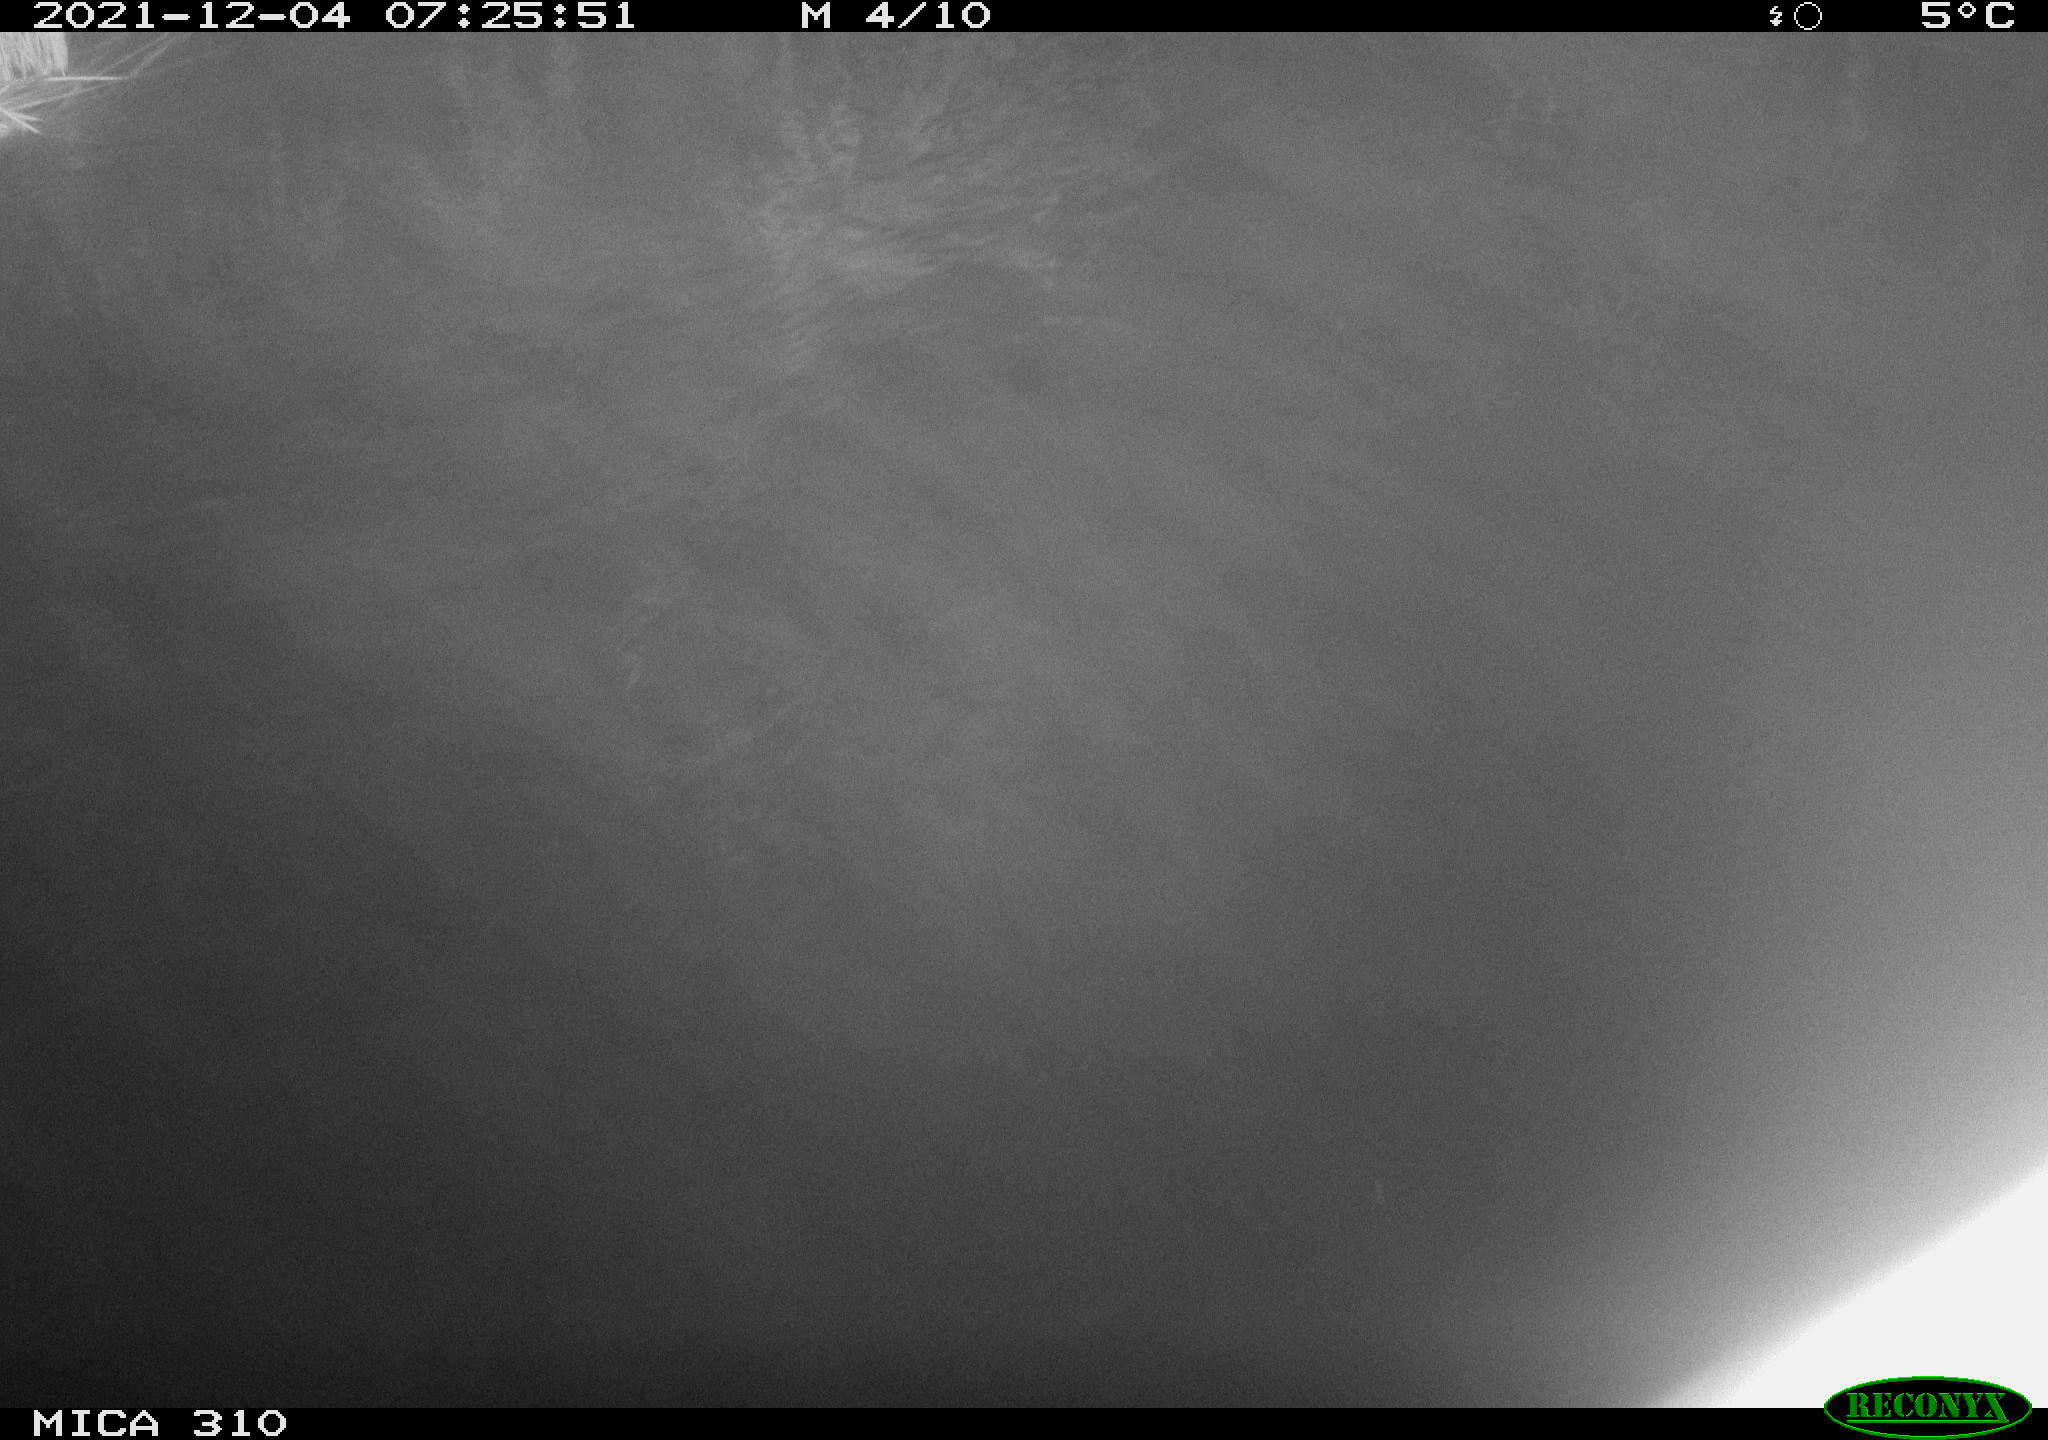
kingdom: Animalia
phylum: Chordata
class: Mammalia
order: Rodentia
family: Muridae
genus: Rattus
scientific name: Rattus norvegicus
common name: Brown rat
